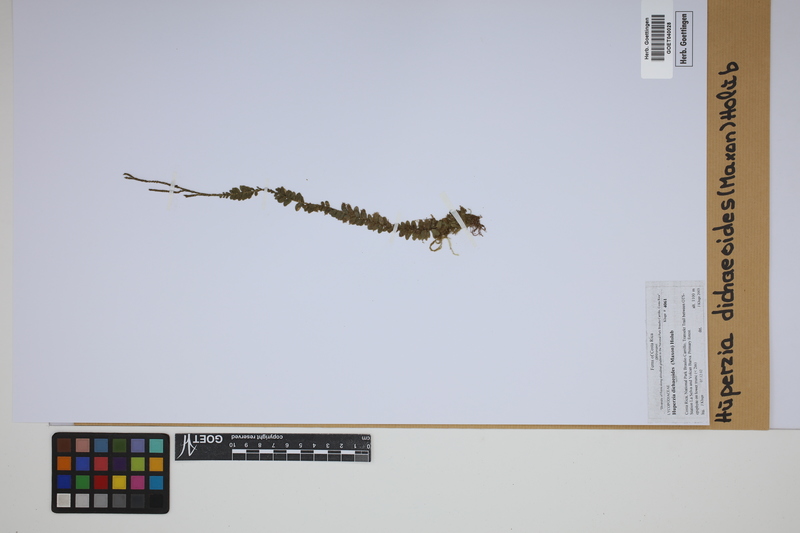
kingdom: Plantae
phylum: Tracheophyta
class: Lycopodiopsida
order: Lycopodiales
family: Lycopodiaceae
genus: Phlegmariurus
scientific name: Phlegmariurus dichaeoides
